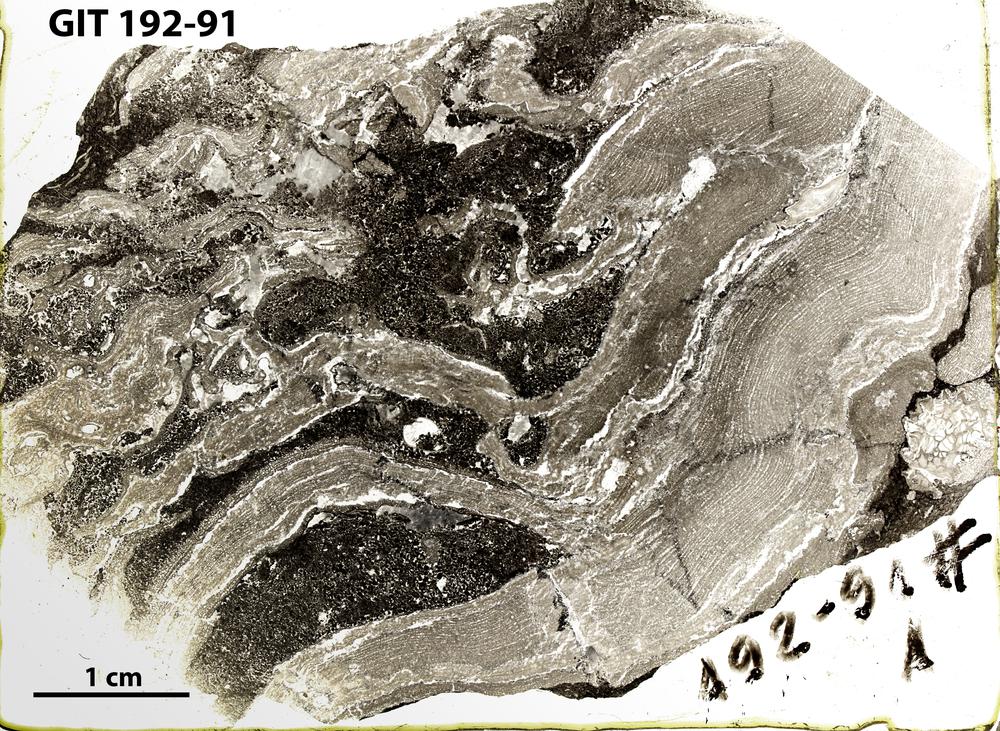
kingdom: Animalia
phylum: Porifera
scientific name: Porifera
